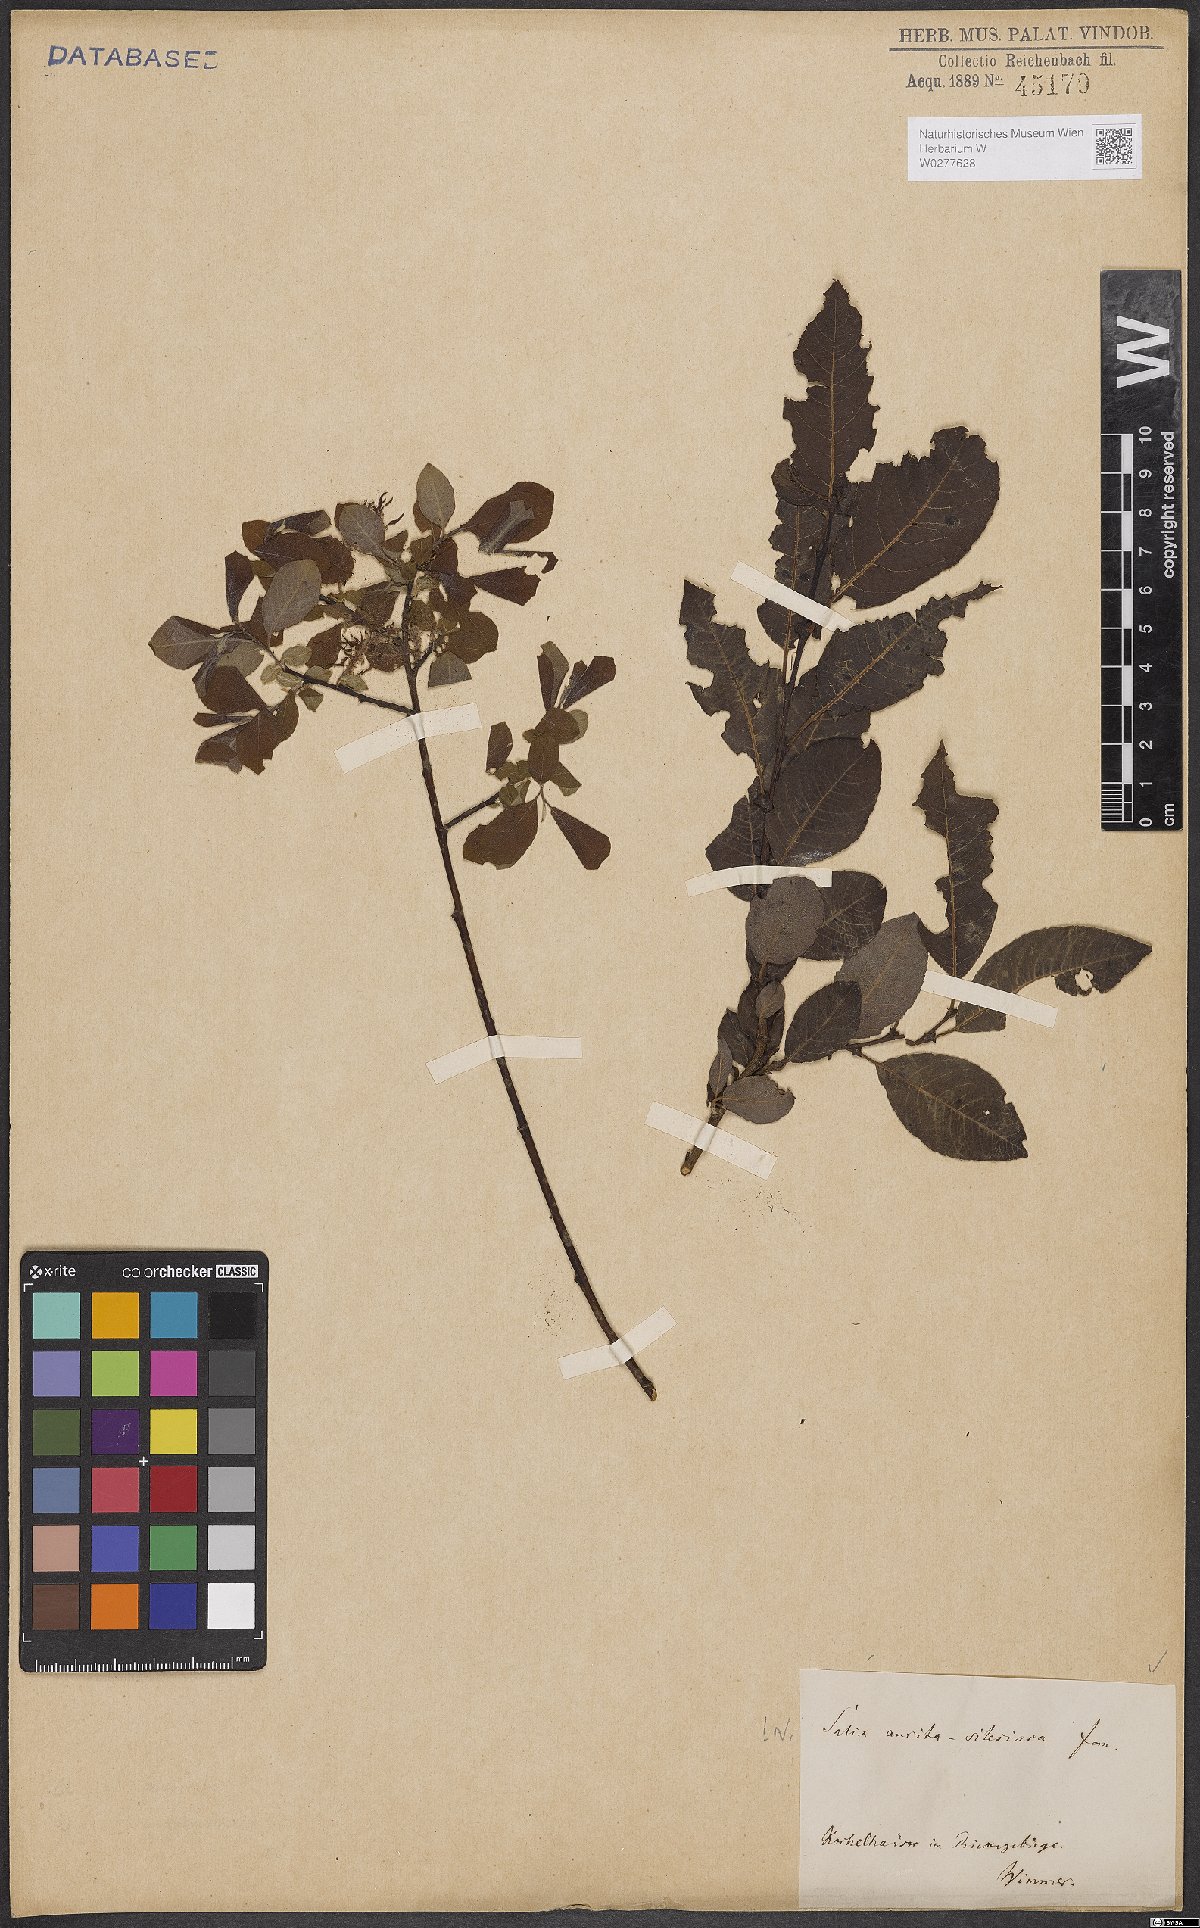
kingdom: Plantae
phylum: Tracheophyta
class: Magnoliopsida
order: Malpighiales
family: Salicaceae
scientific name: Salicaceae
